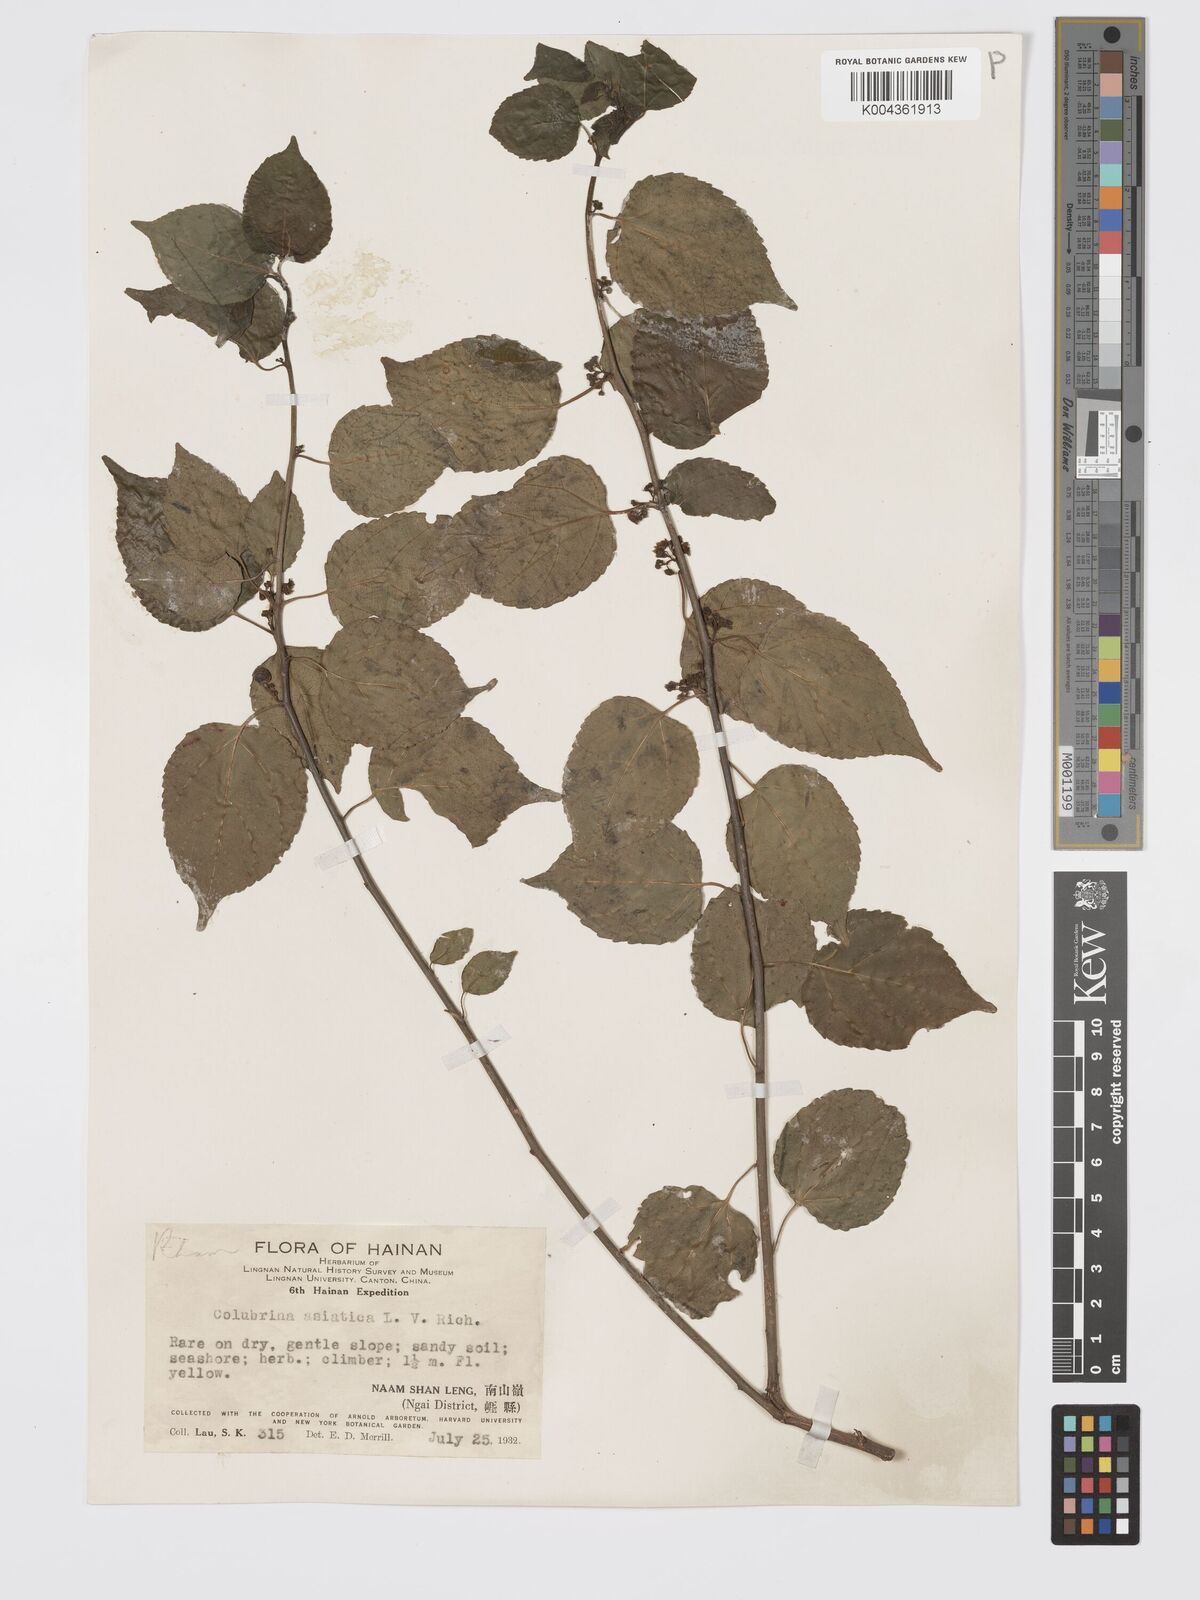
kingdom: Plantae
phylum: Tracheophyta
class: Magnoliopsida
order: Rosales
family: Rhamnaceae
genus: Colubrina
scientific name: Colubrina asiatica
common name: Asian nakedwood
